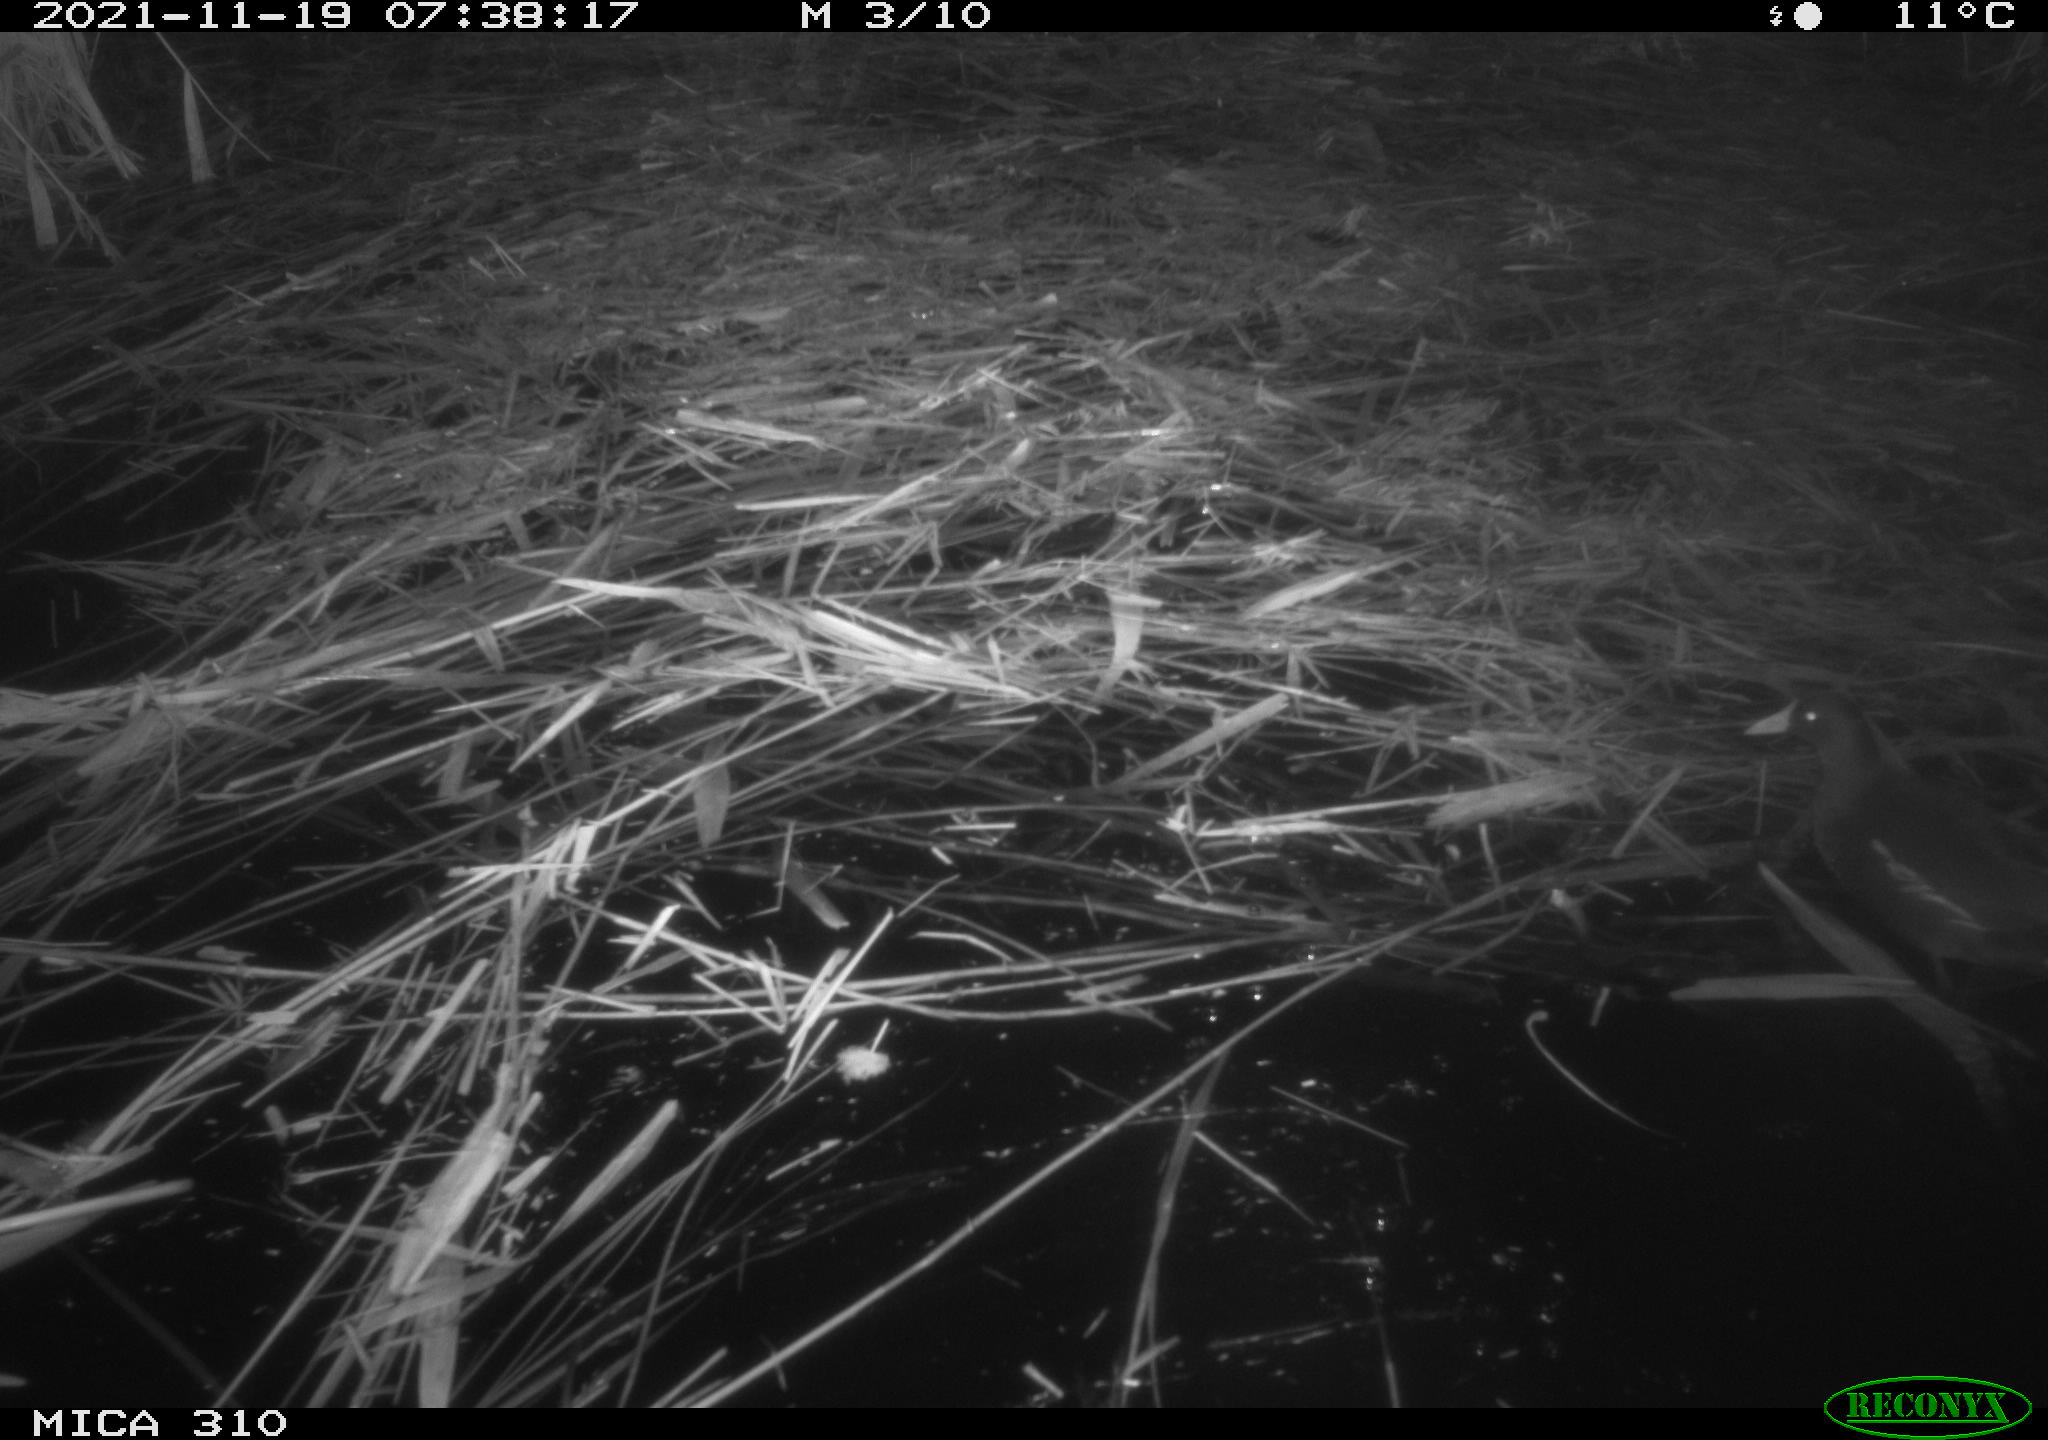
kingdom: Animalia
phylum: Chordata
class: Aves
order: Gruiformes
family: Rallidae
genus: Gallinula
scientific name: Gallinula chloropus
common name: Common moorhen
